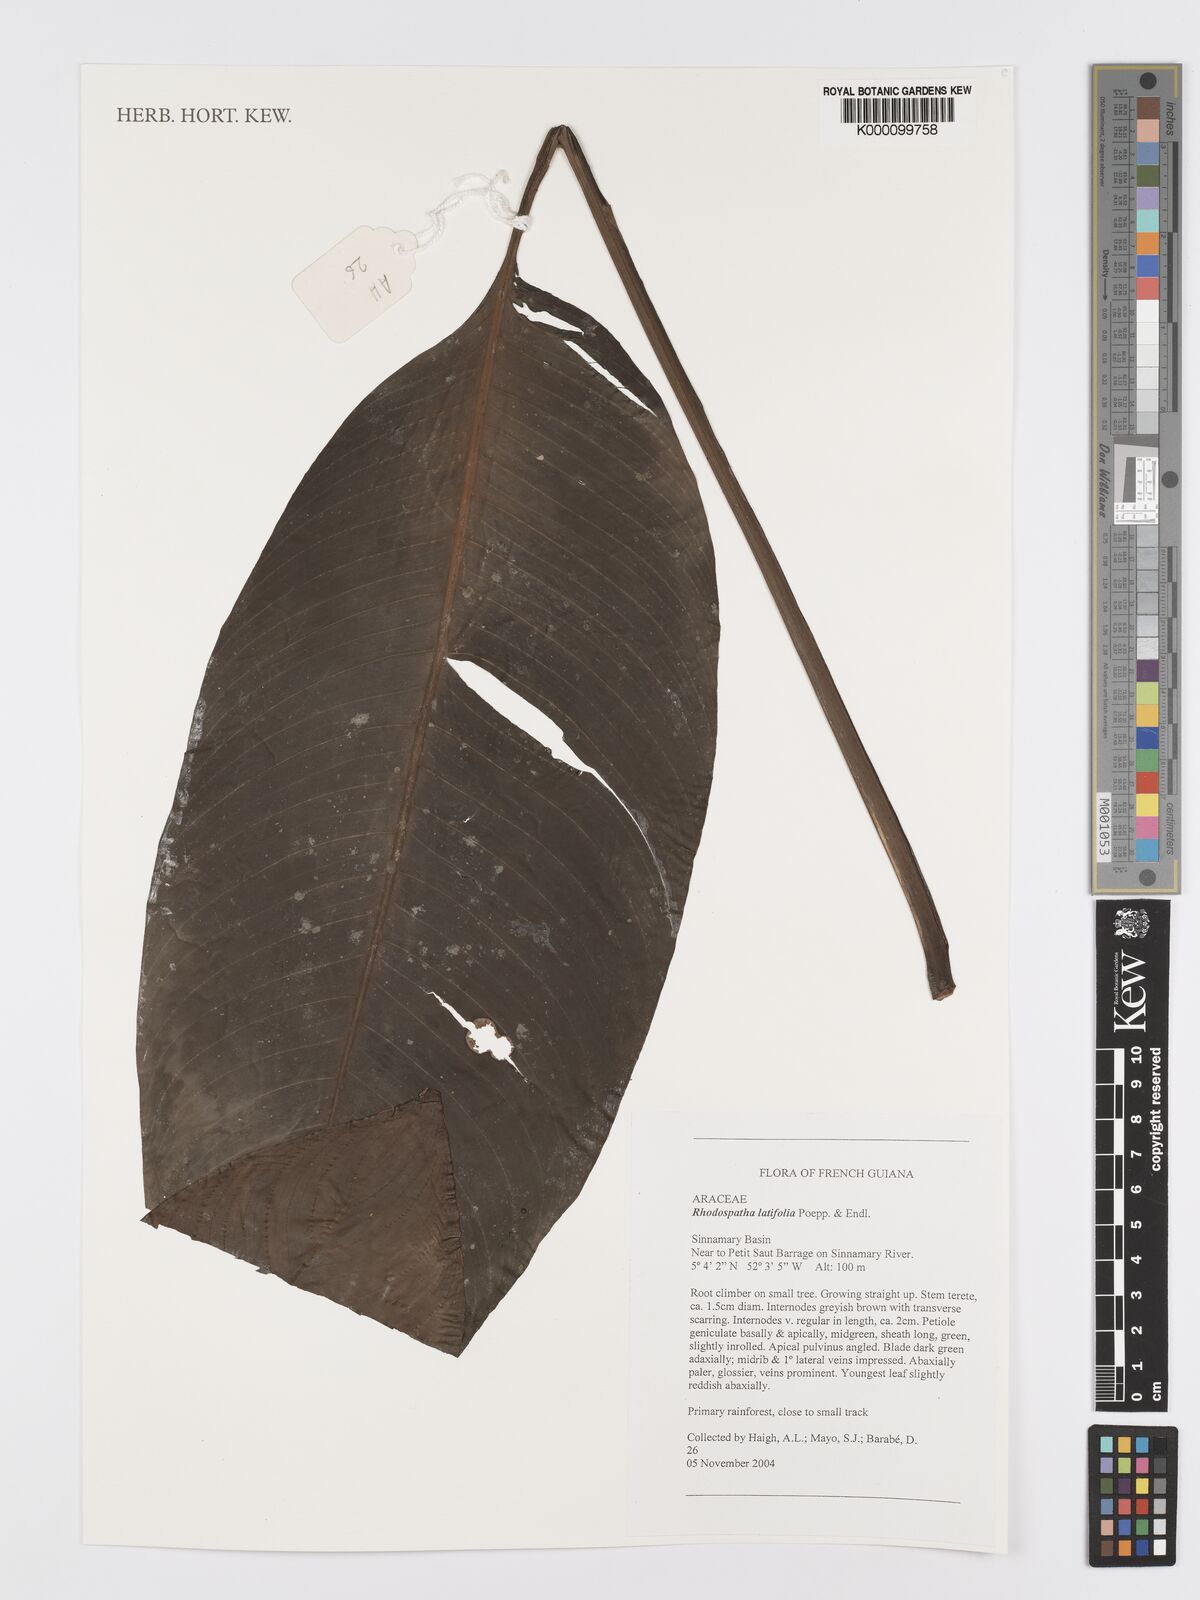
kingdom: Plantae
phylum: Tracheophyta
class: Liliopsida
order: Alismatales
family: Araceae
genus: Rhodospatha
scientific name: Rhodospatha latifolia
